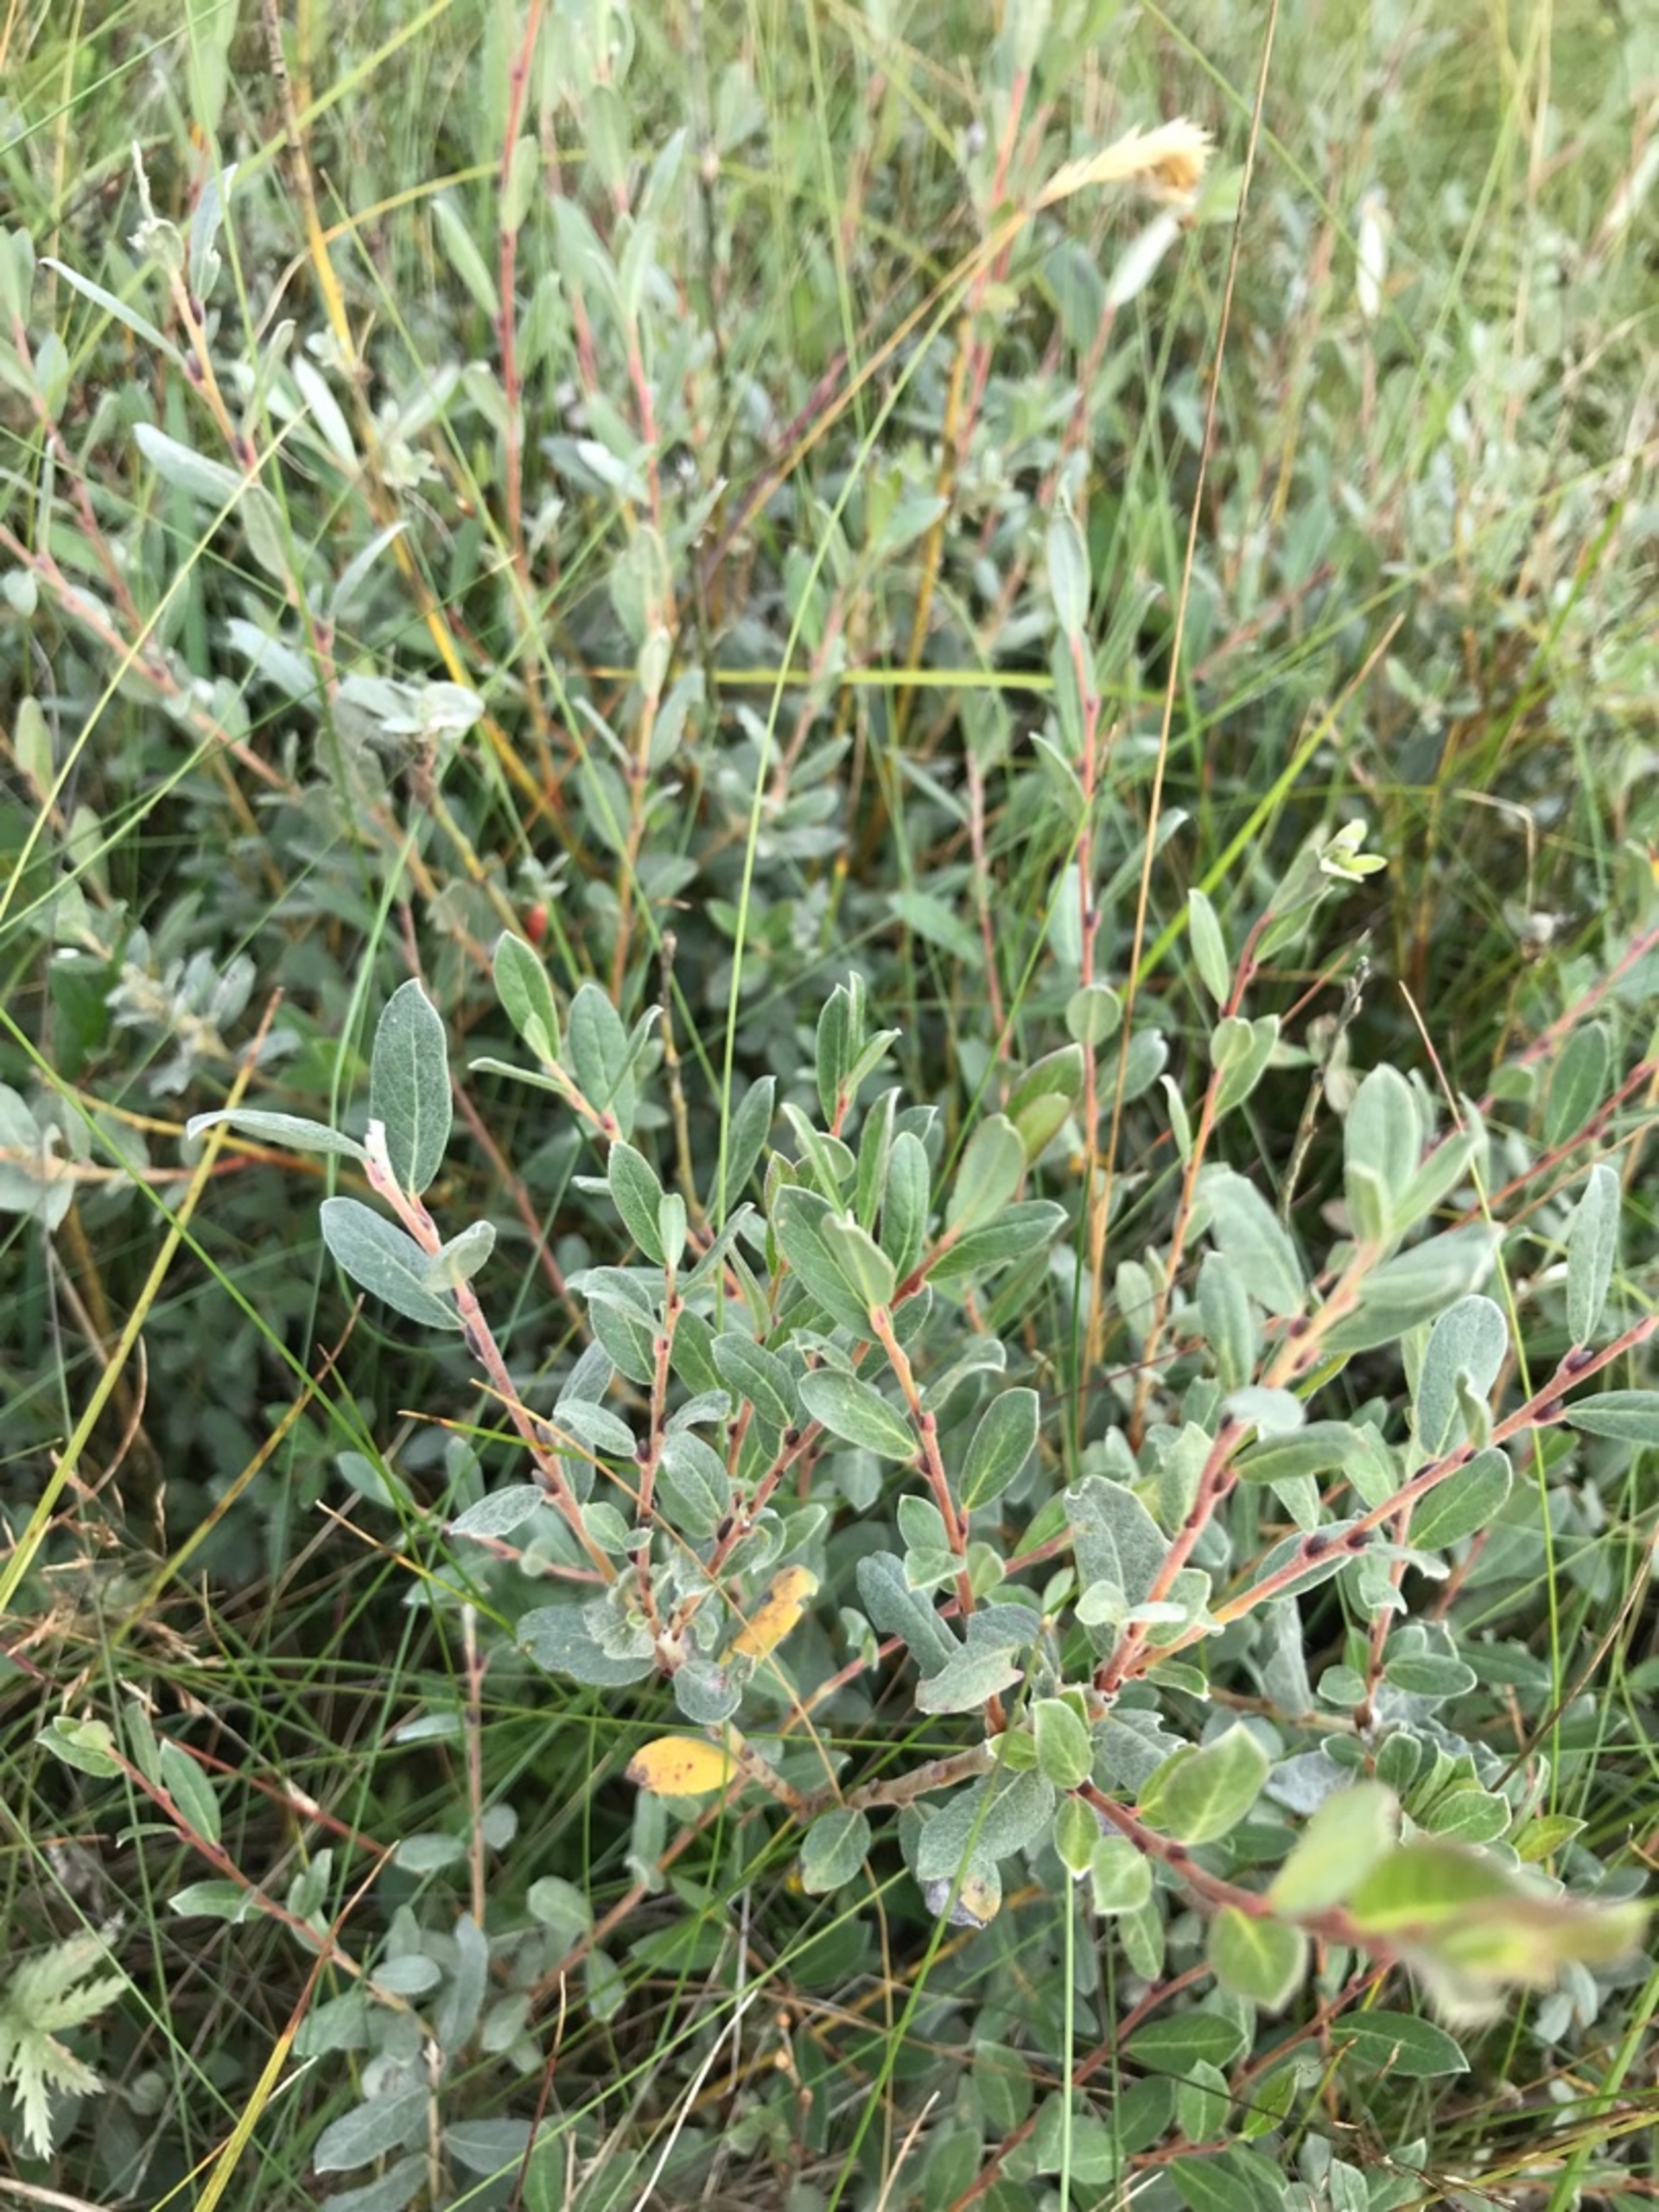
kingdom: Plantae
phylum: Tracheophyta
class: Magnoliopsida
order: Malpighiales
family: Salicaceae
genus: Salix
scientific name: Salix repens
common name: Krybende pil
